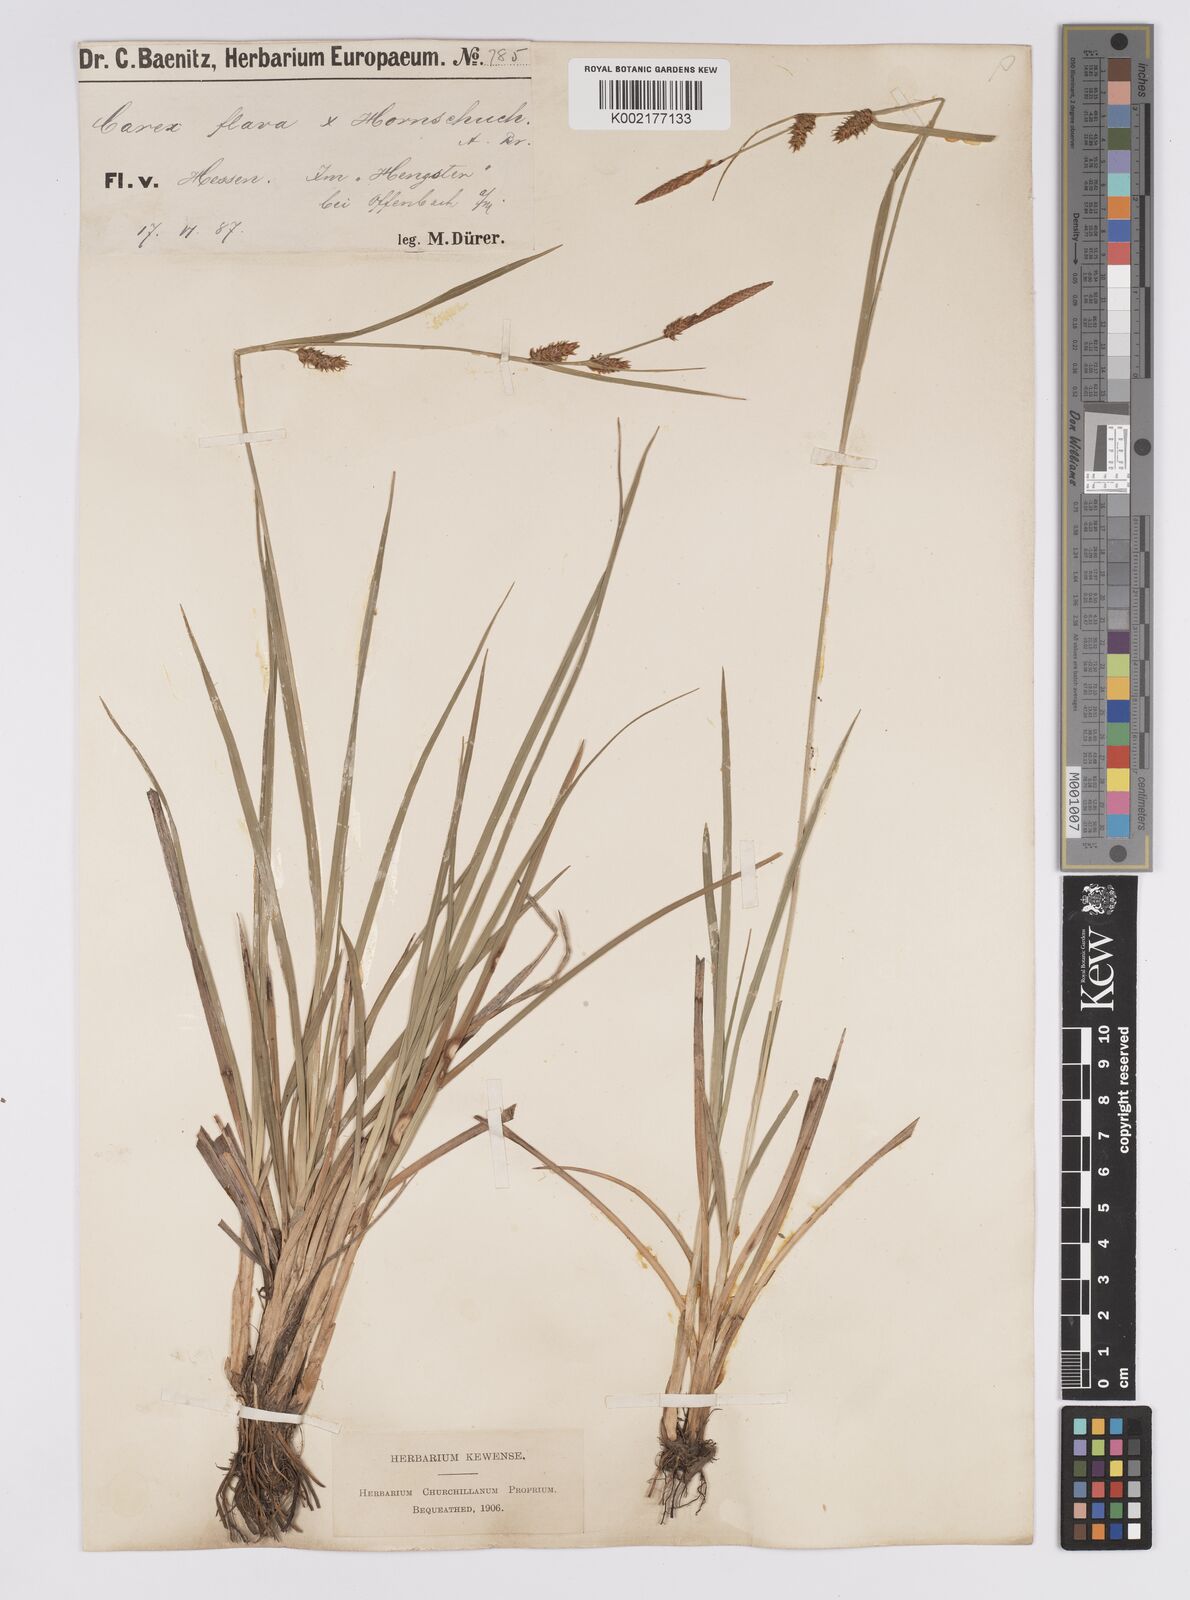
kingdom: Plantae
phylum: Tracheophyta
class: Liliopsida
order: Poales
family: Cyperaceae
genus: Carex
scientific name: Carex hostiana
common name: Tawny sedge
